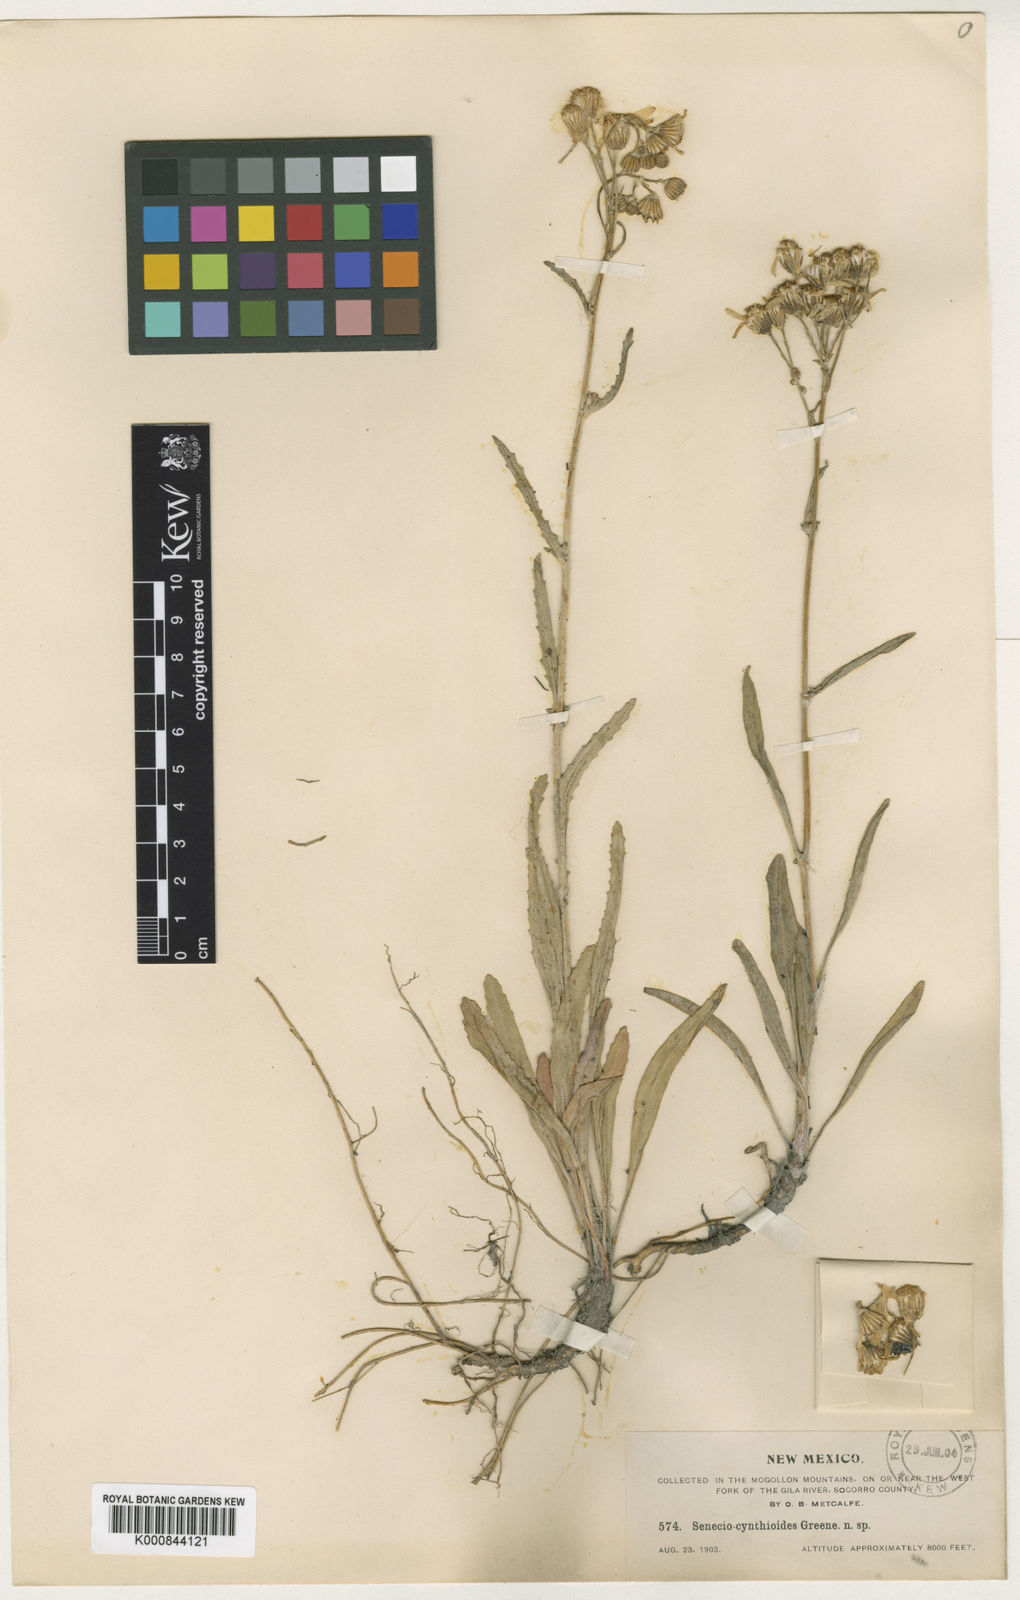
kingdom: Plantae
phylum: Tracheophyta
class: Magnoliopsida
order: Asterales
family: Asteraceae
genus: Packera
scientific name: Packera
